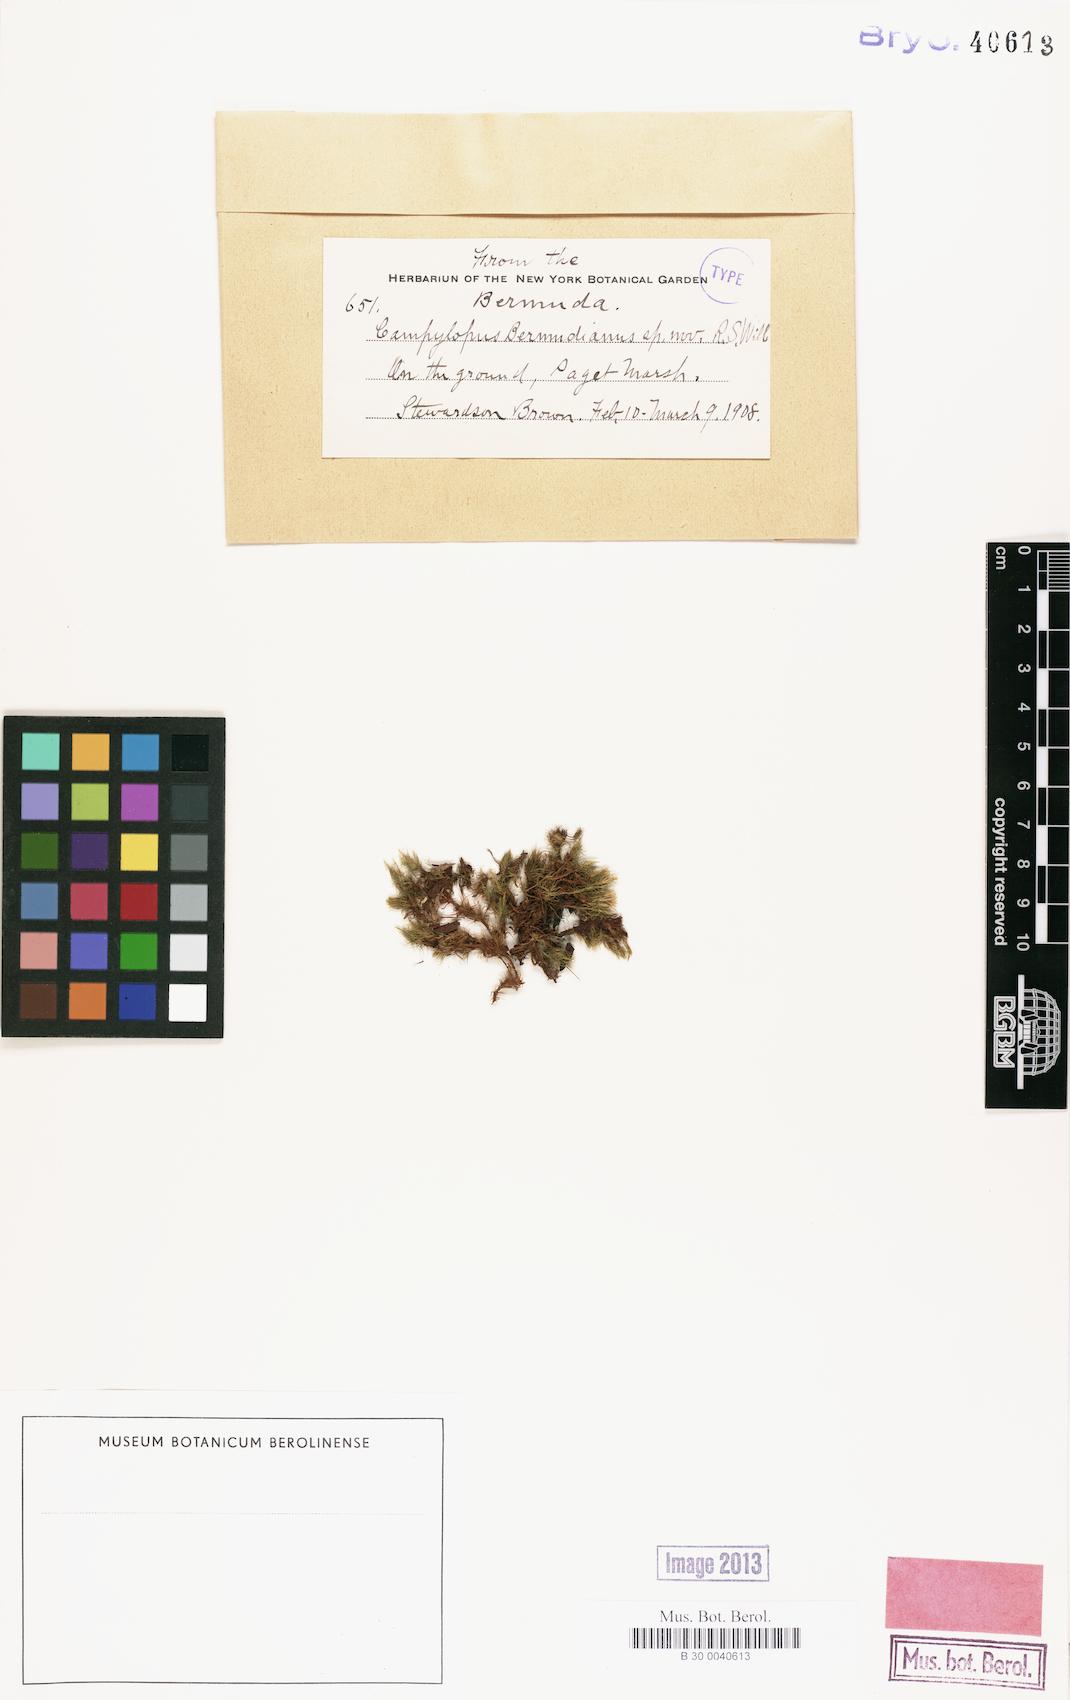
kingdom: Plantae
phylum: Bryophyta
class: Bryopsida
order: Dicranales
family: Leucobryaceae
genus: Campylopus
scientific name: Campylopus trachyblepharon
